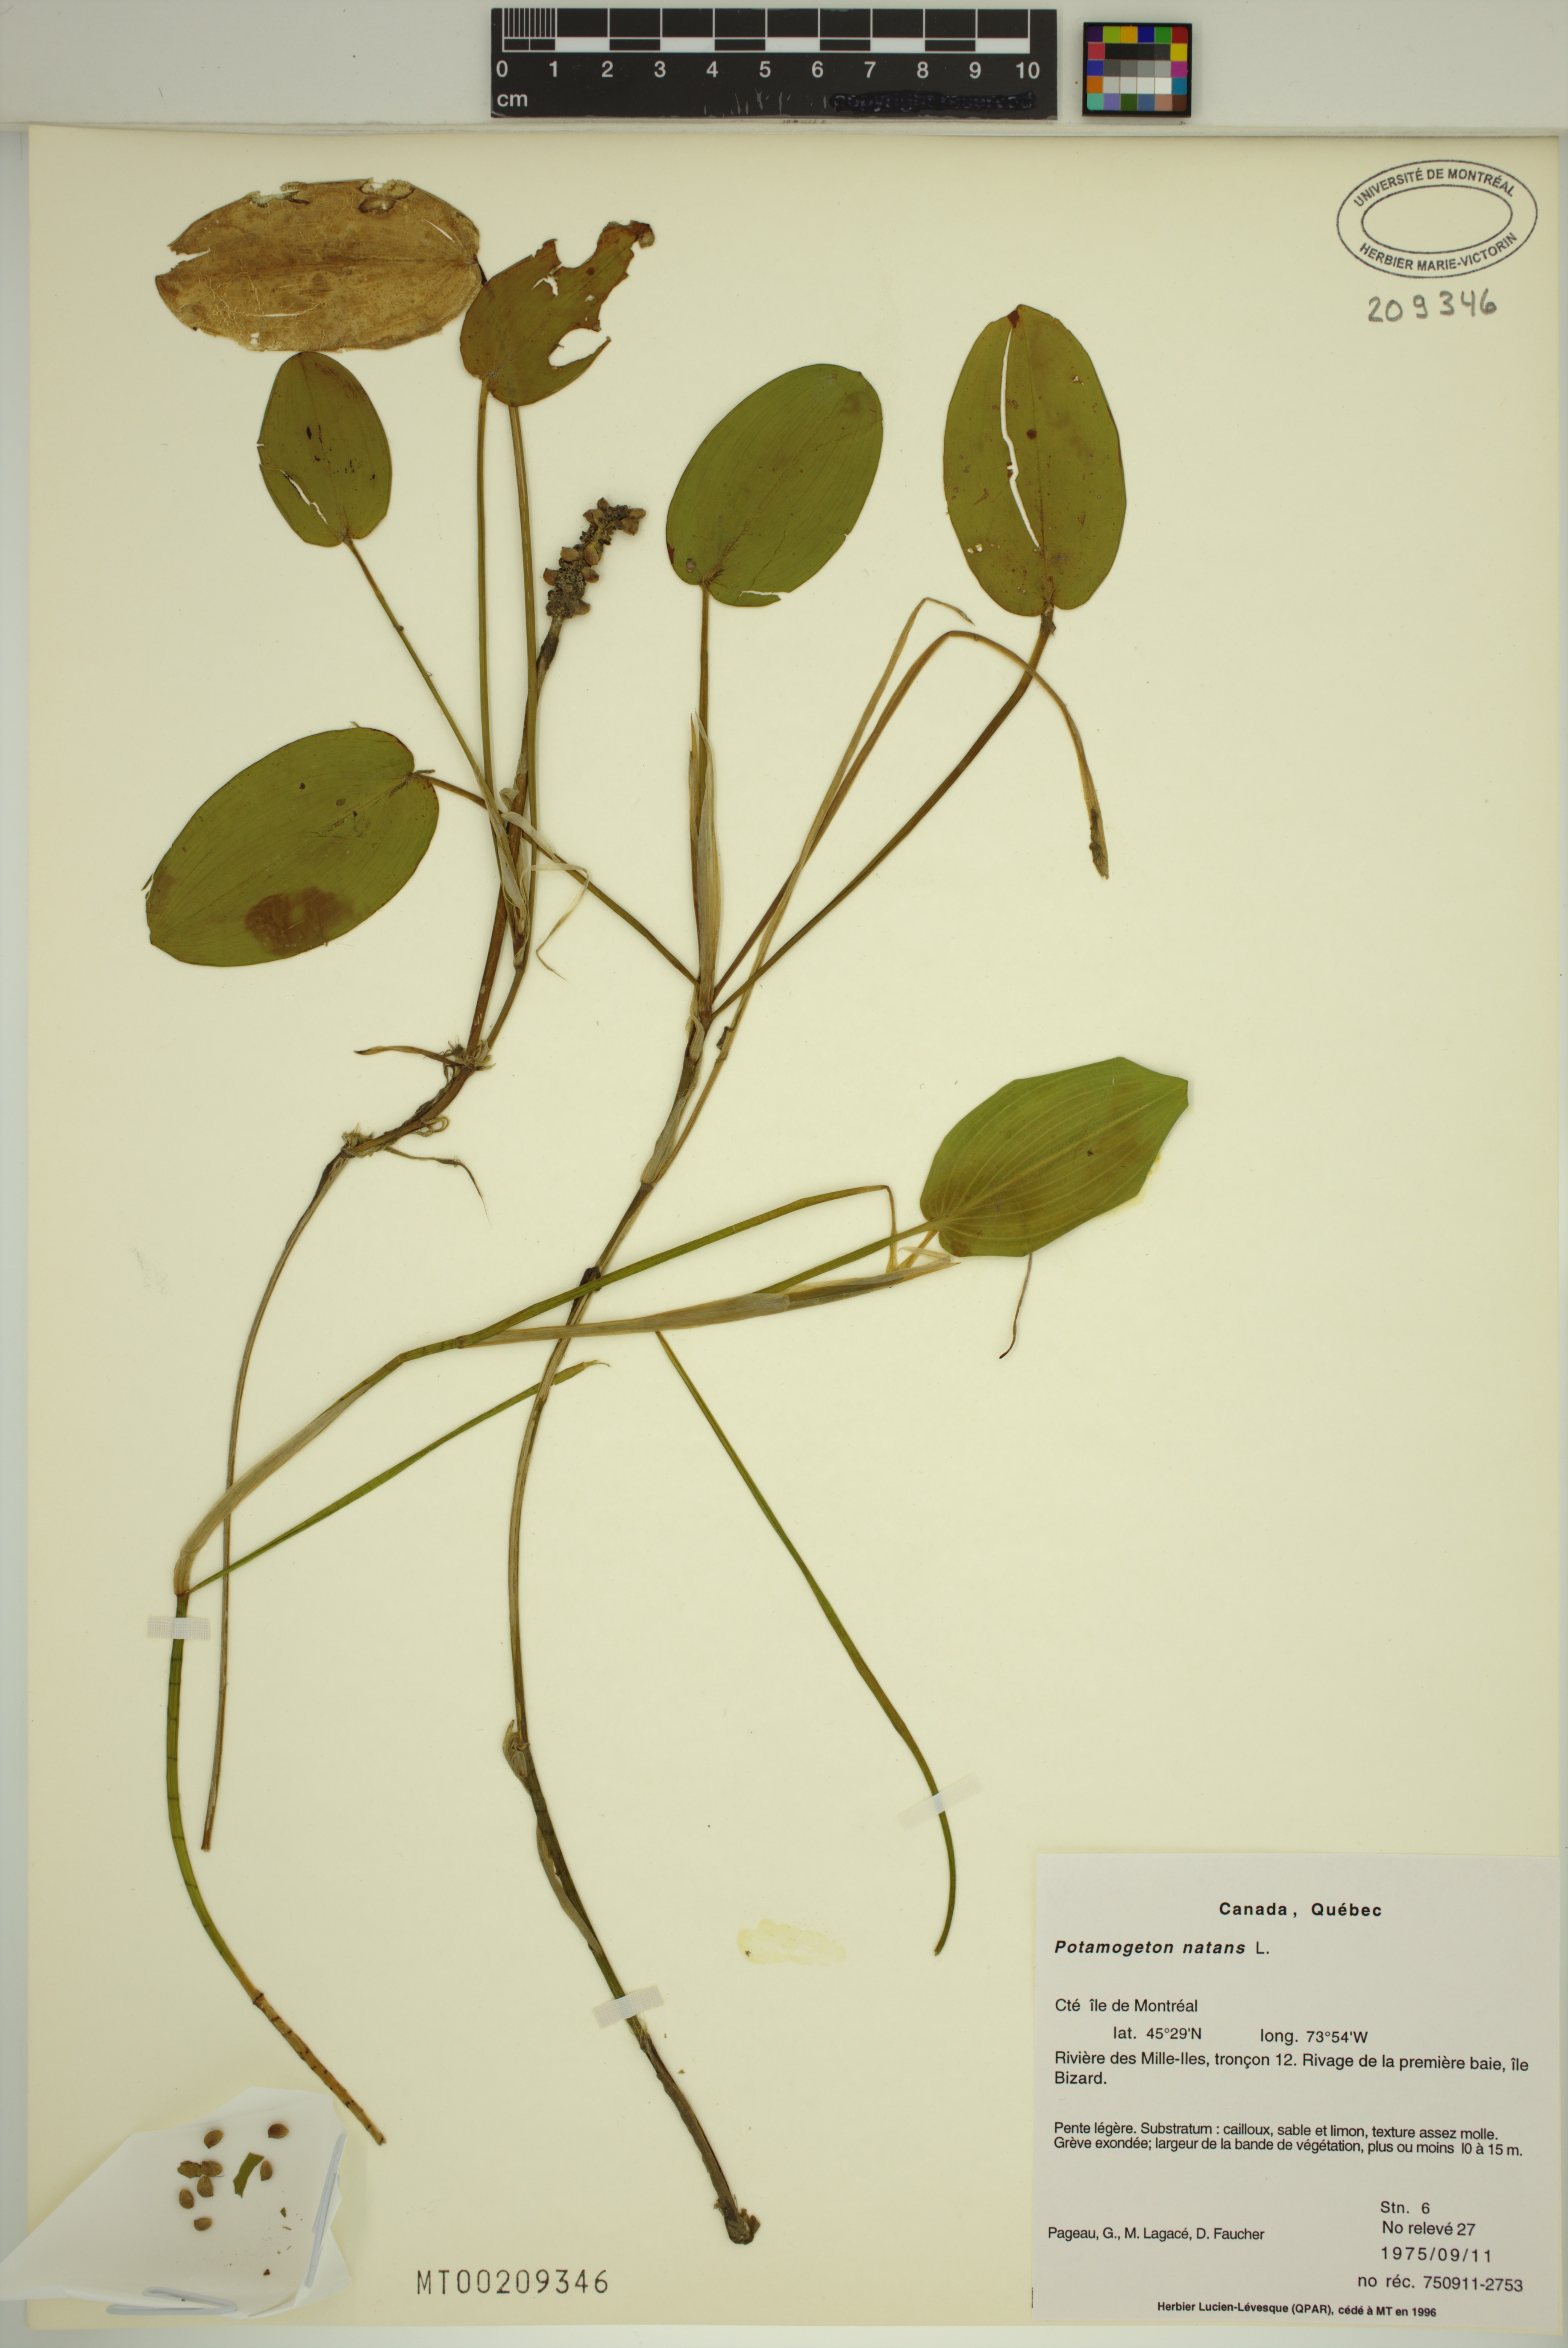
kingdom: Plantae
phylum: Tracheophyta
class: Liliopsida
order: Alismatales
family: Potamogetonaceae
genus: Potamogeton
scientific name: Potamogeton natans
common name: Broad-leaved pondweed
